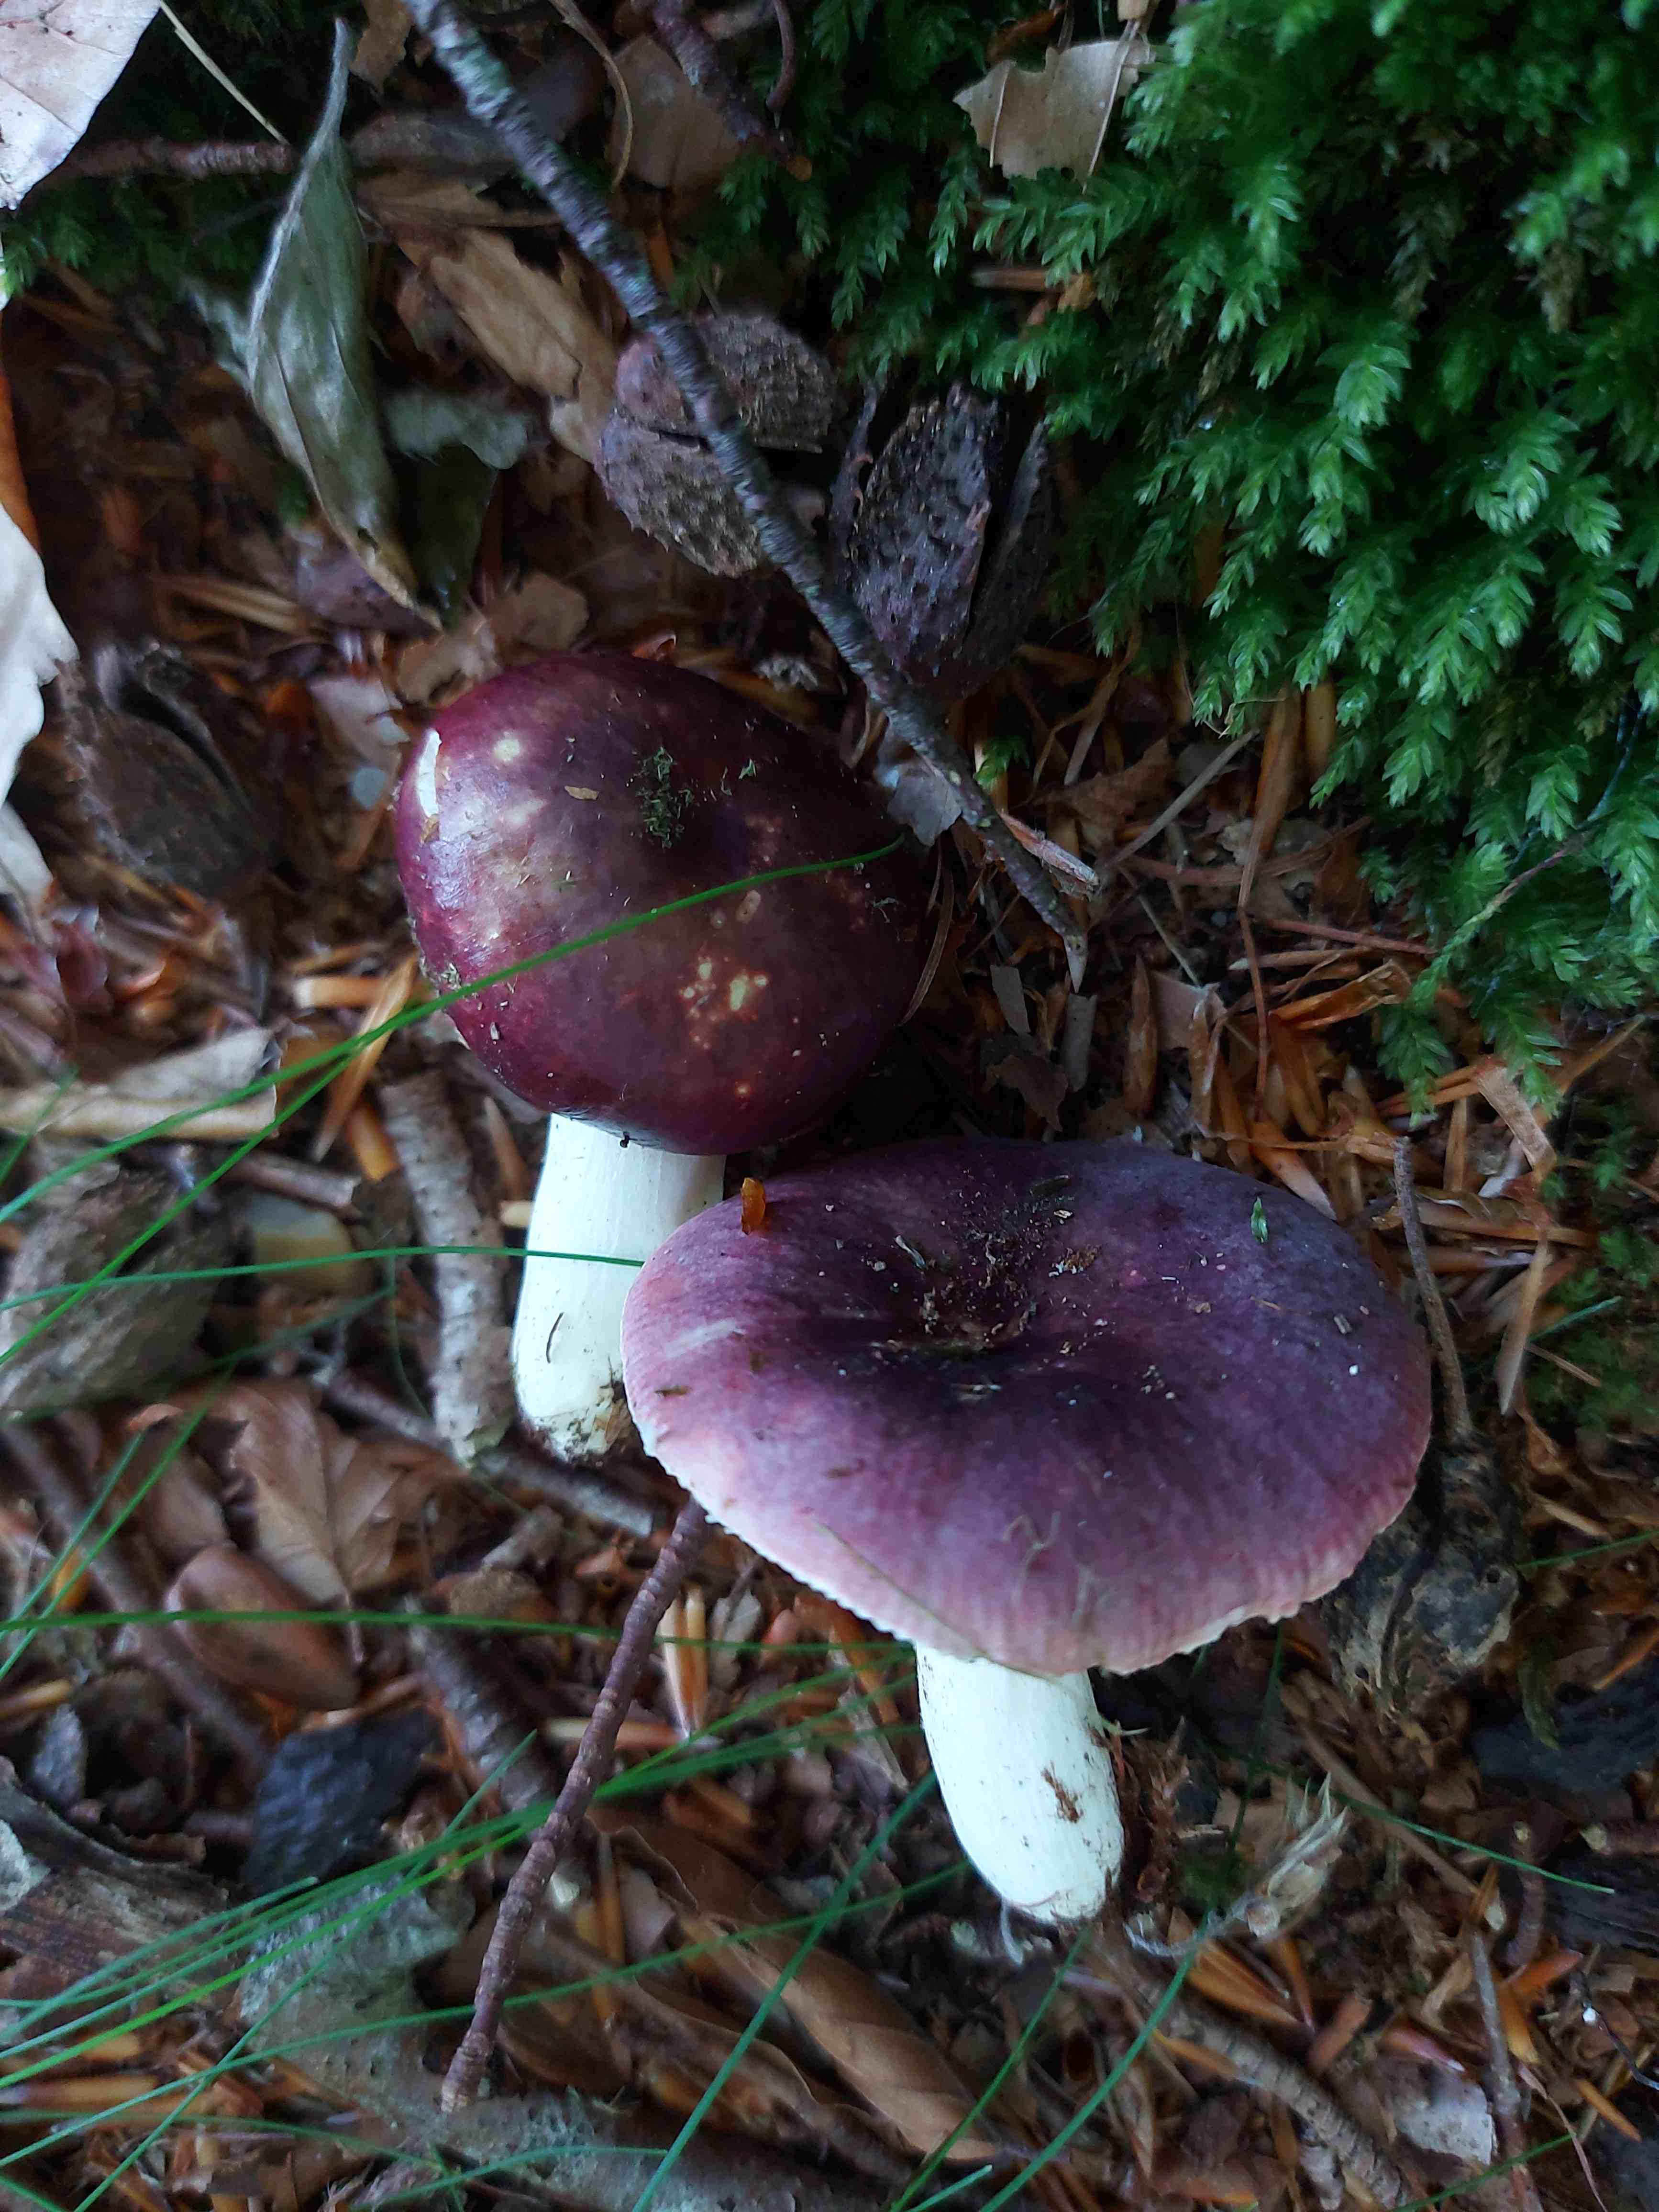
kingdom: Fungi
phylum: Basidiomycota
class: Agaricomycetes
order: Russulales
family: Russulaceae
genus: Russula
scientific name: Russula atropurpurea
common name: purpurbroget skørhat
